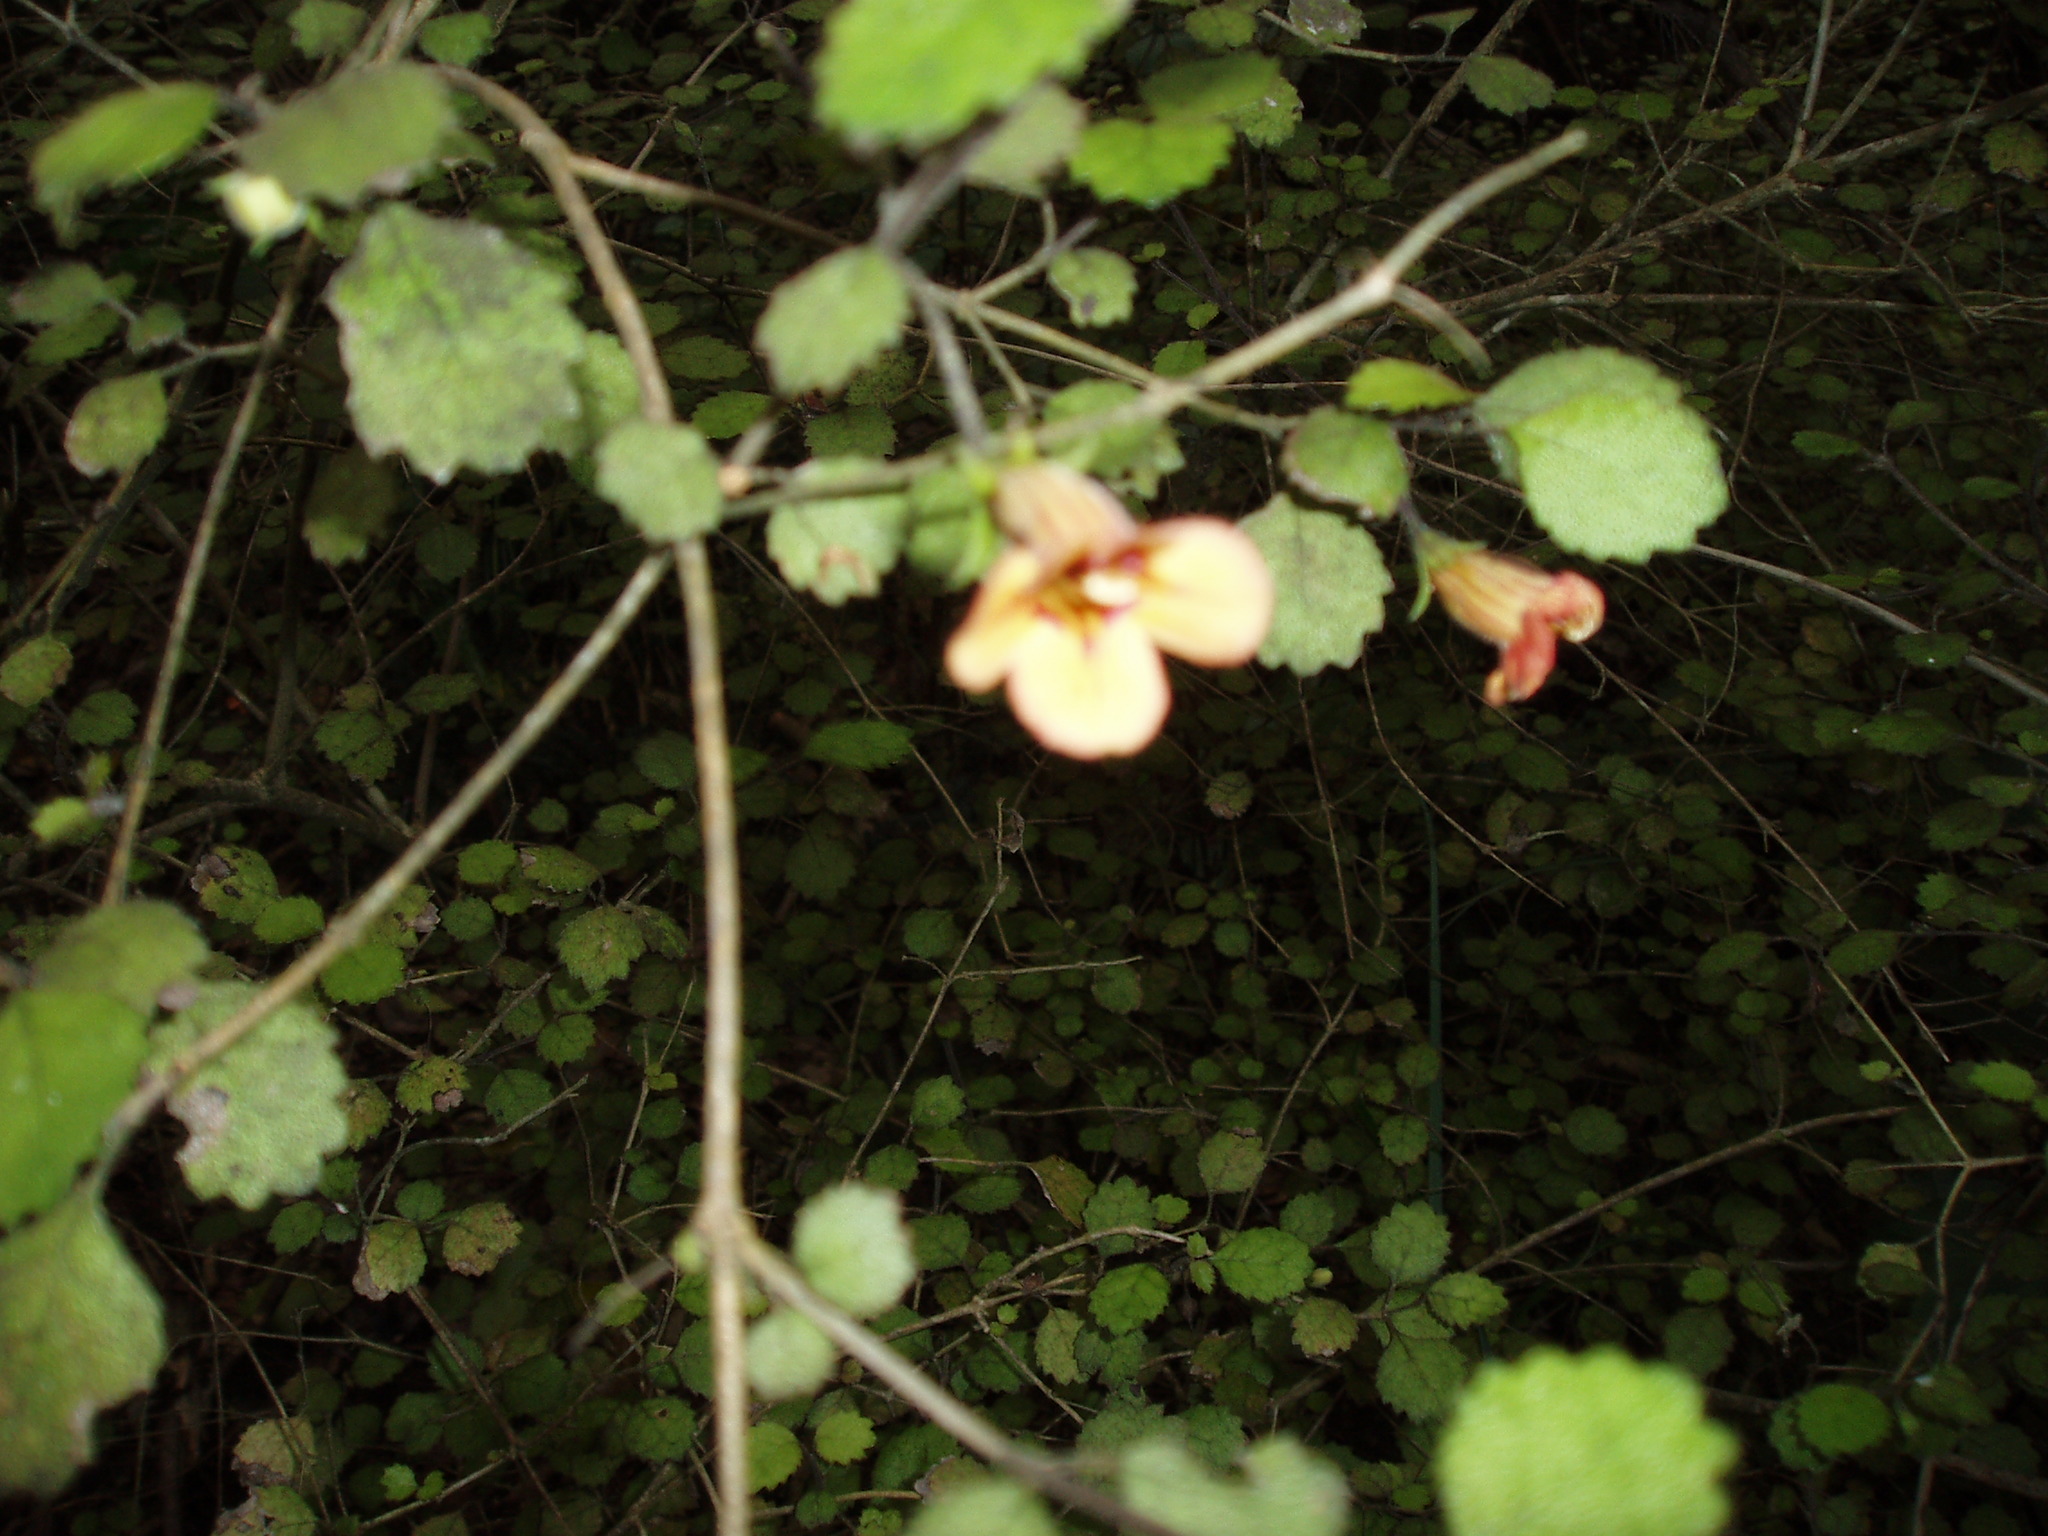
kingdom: Plantae
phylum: Tracheophyta
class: Magnoliopsida
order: Lamiales
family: Gesneriaceae
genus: Rhabdothamnus
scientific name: Rhabdothamnus solandri
